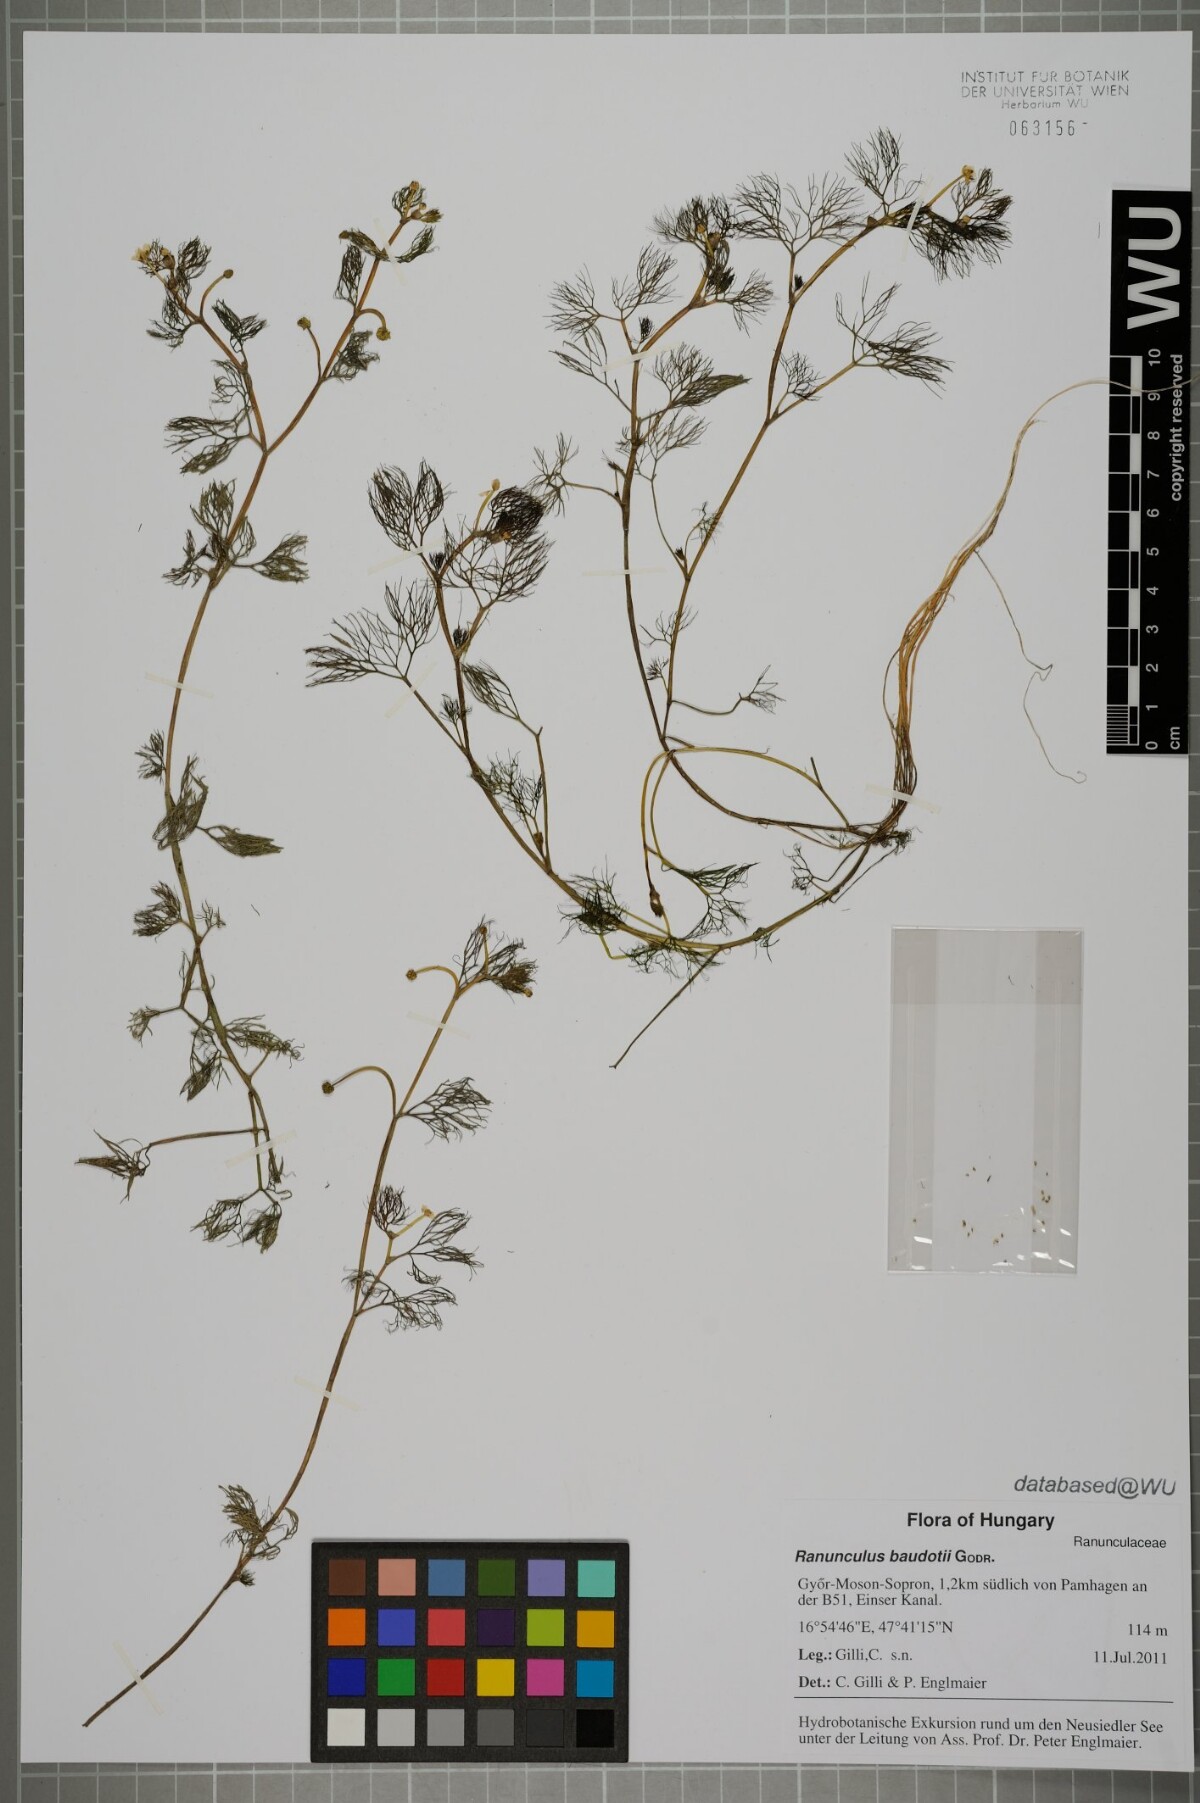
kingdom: Plantae
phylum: Tracheophyta
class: Magnoliopsida
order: Ranunculales
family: Ranunculaceae
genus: Ranunculus
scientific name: Ranunculus peltatus
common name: Pond water-crowfoot
